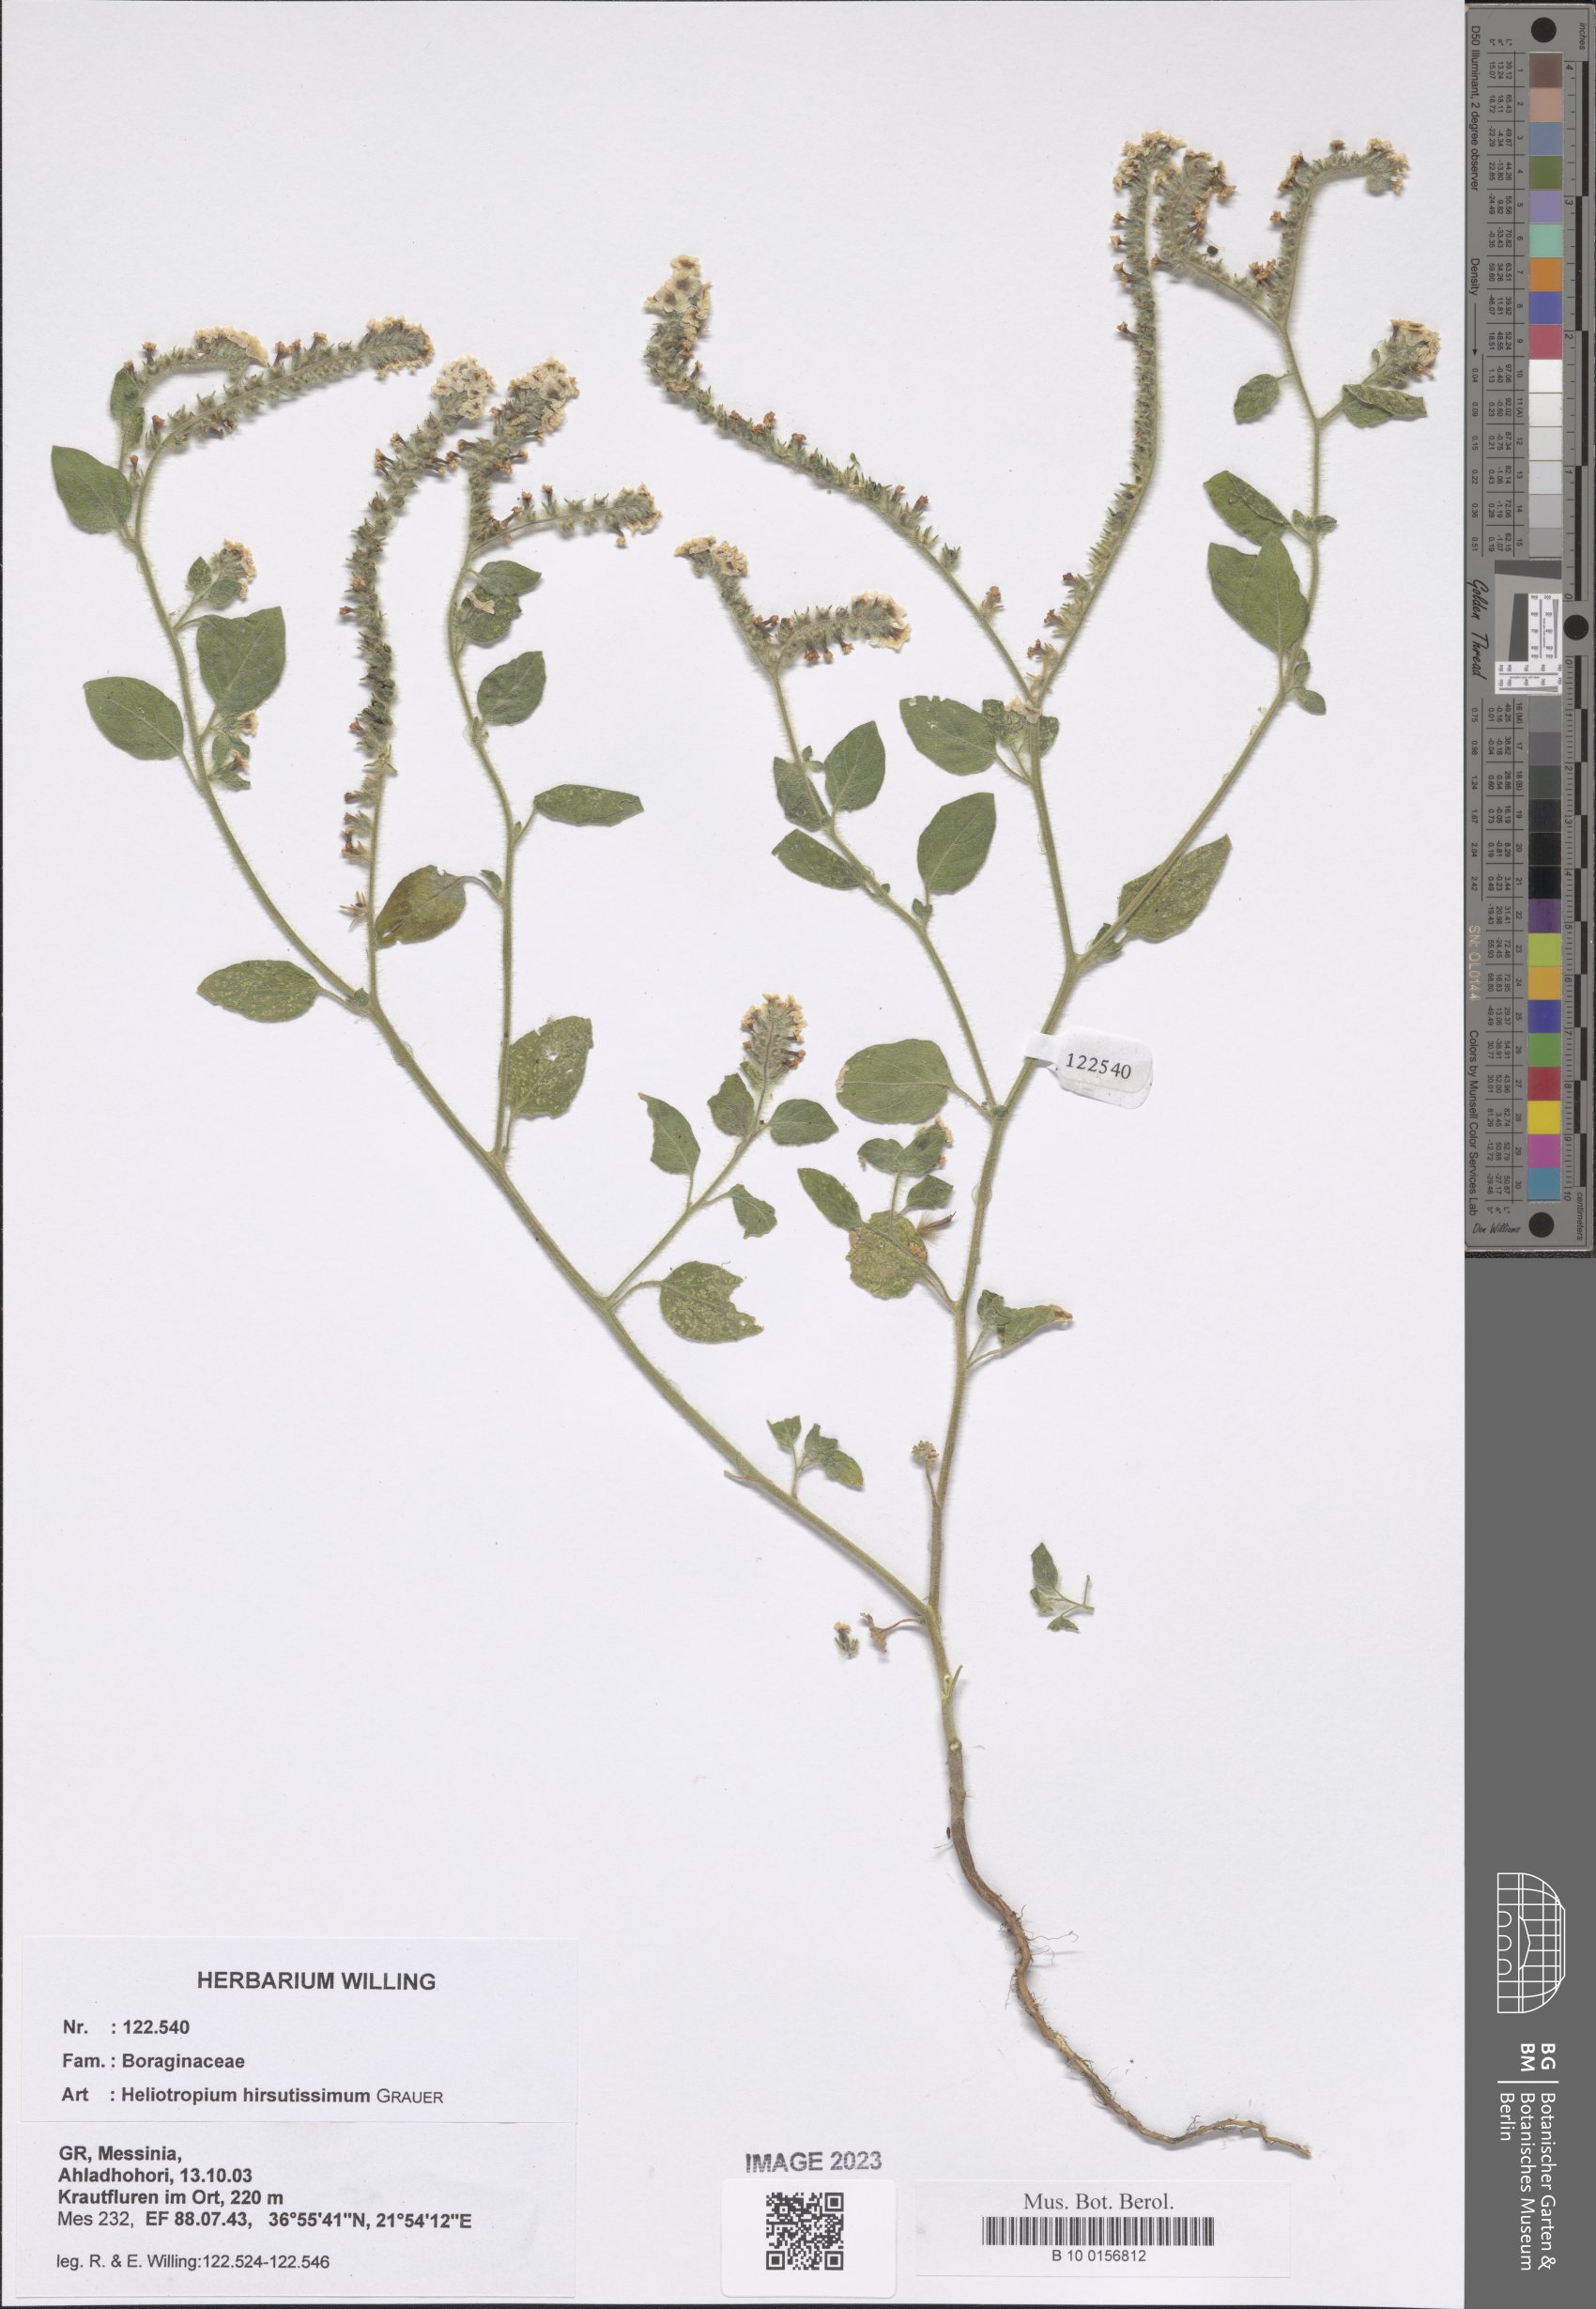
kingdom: Plantae
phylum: Tracheophyta
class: Magnoliopsida
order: Boraginales
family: Heliotropiaceae
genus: Heliotropium
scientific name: Heliotropium hirsutissimum
